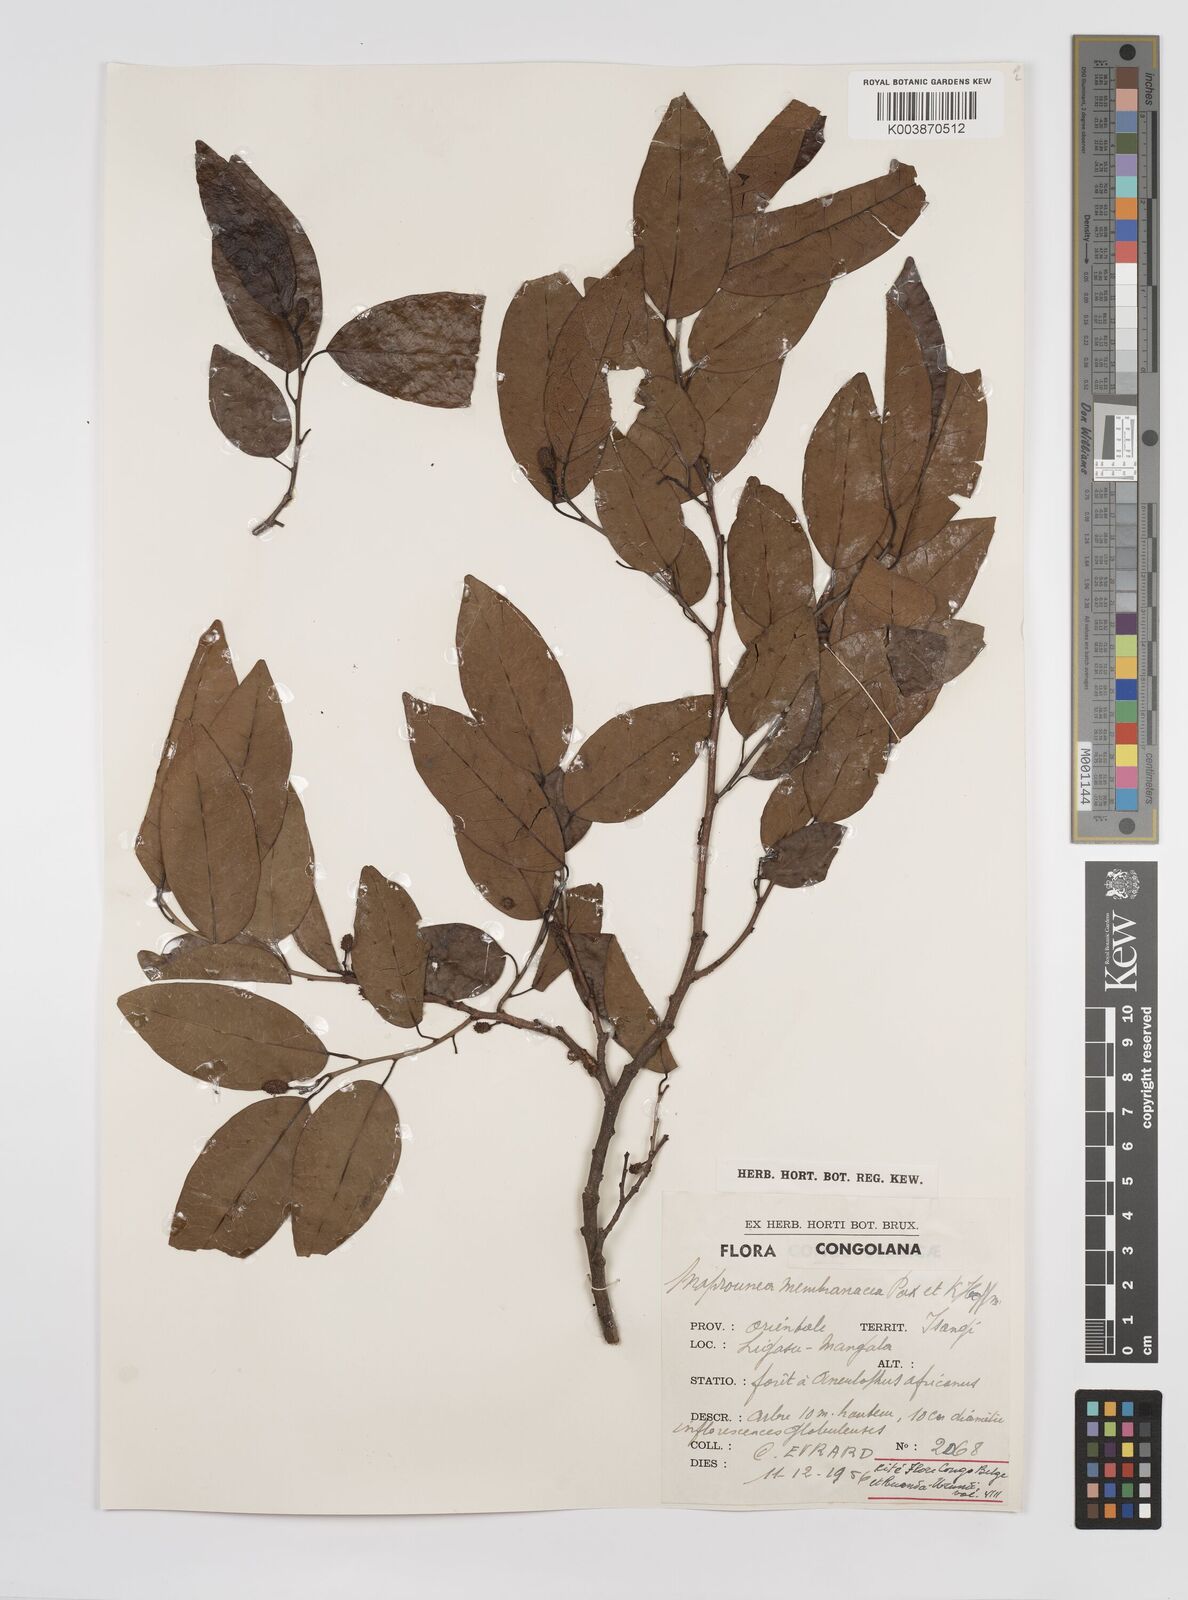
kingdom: Plantae
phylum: Tracheophyta
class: Magnoliopsida
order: Malpighiales
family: Euphorbiaceae
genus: Maprounea
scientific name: Maprounea membranacea
